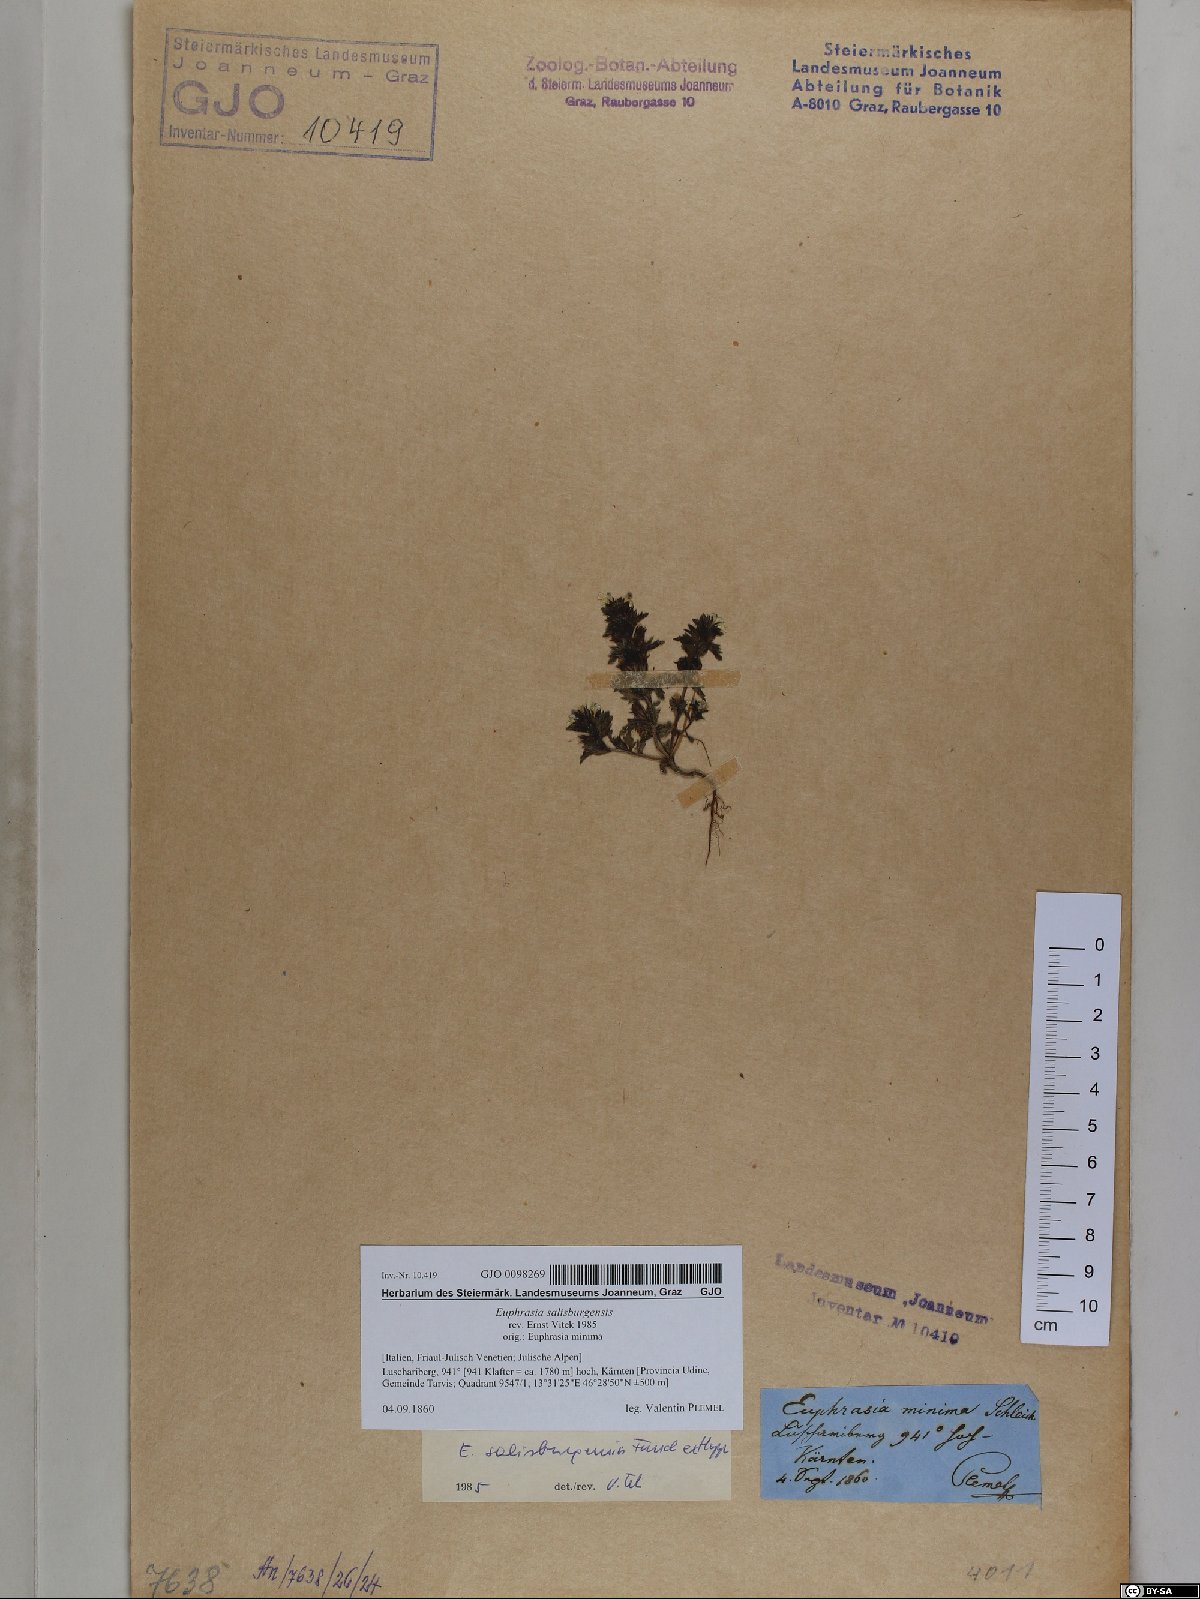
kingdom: Plantae
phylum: Tracheophyta
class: Magnoliopsida
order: Lamiales
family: Orobanchaceae
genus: Euphrasia
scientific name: Euphrasia salisburgensis
